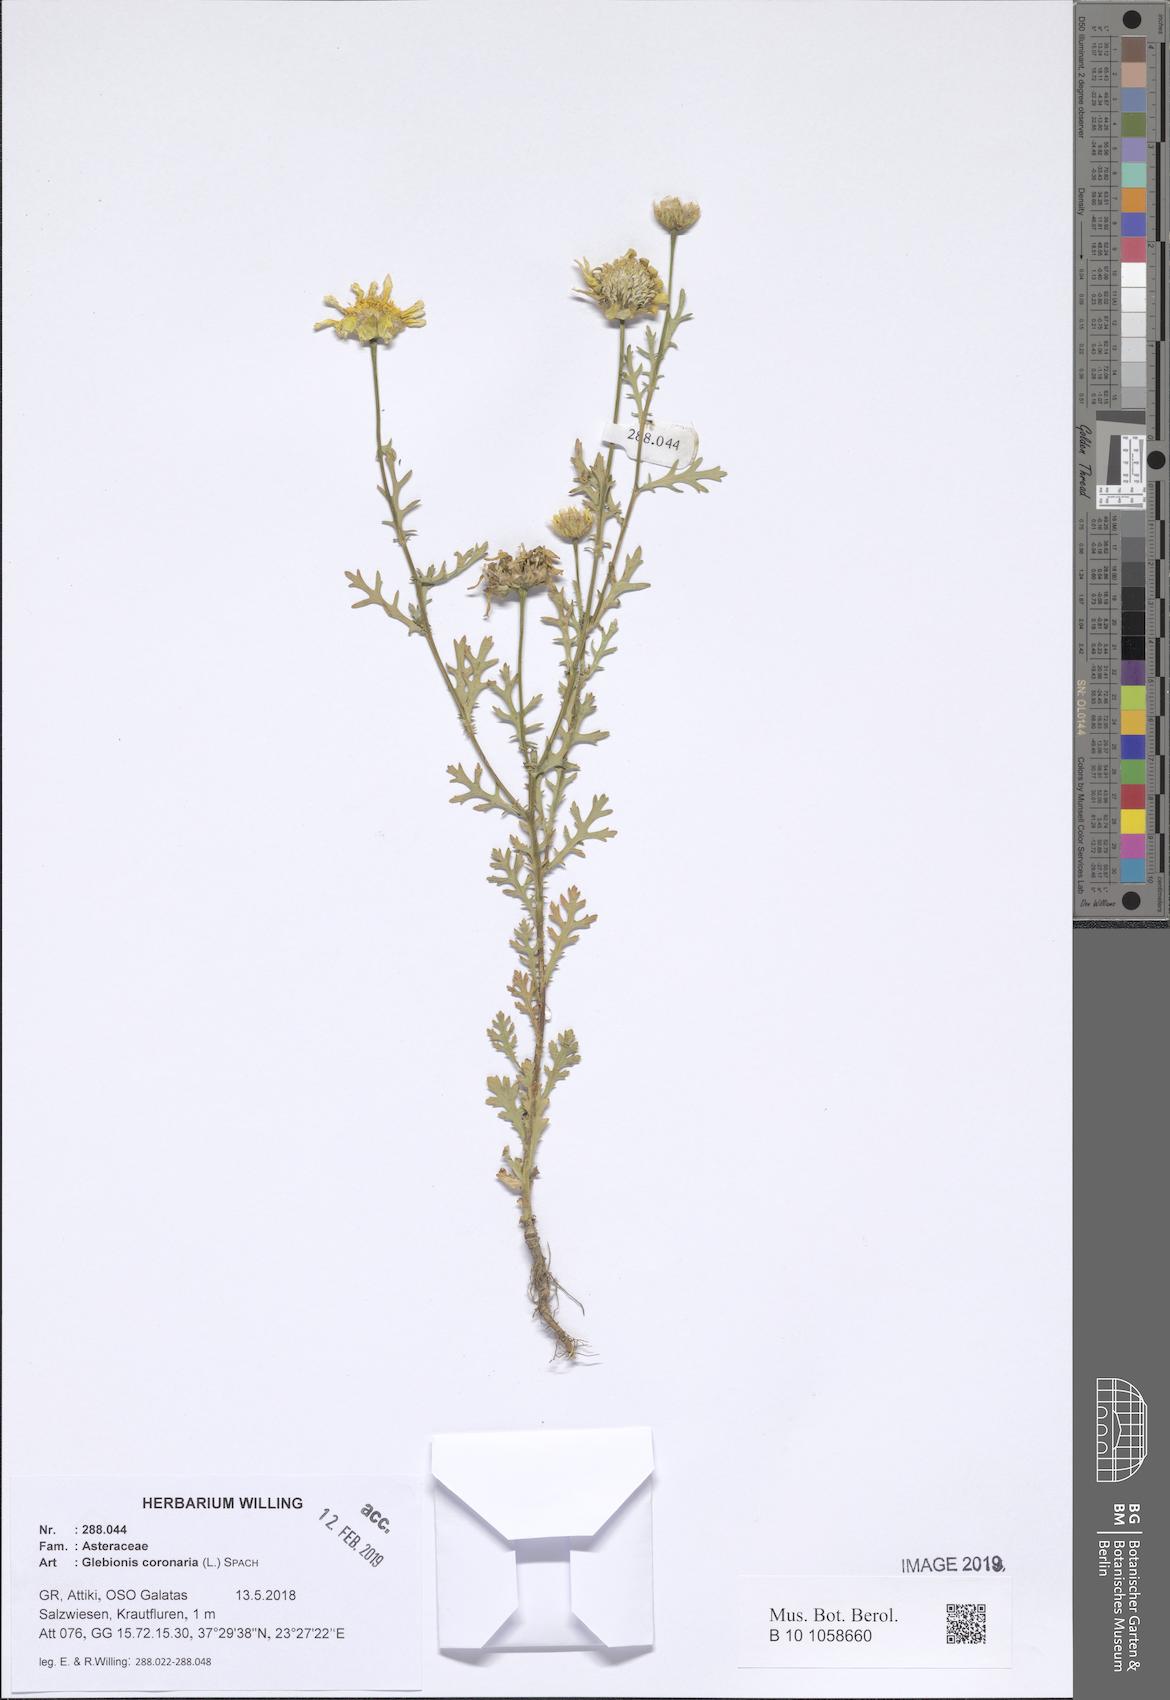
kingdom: Plantae
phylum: Tracheophyta
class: Magnoliopsida
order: Asterales
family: Asteraceae
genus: Glebionis
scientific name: Glebionis coronaria
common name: Crowndaisy
